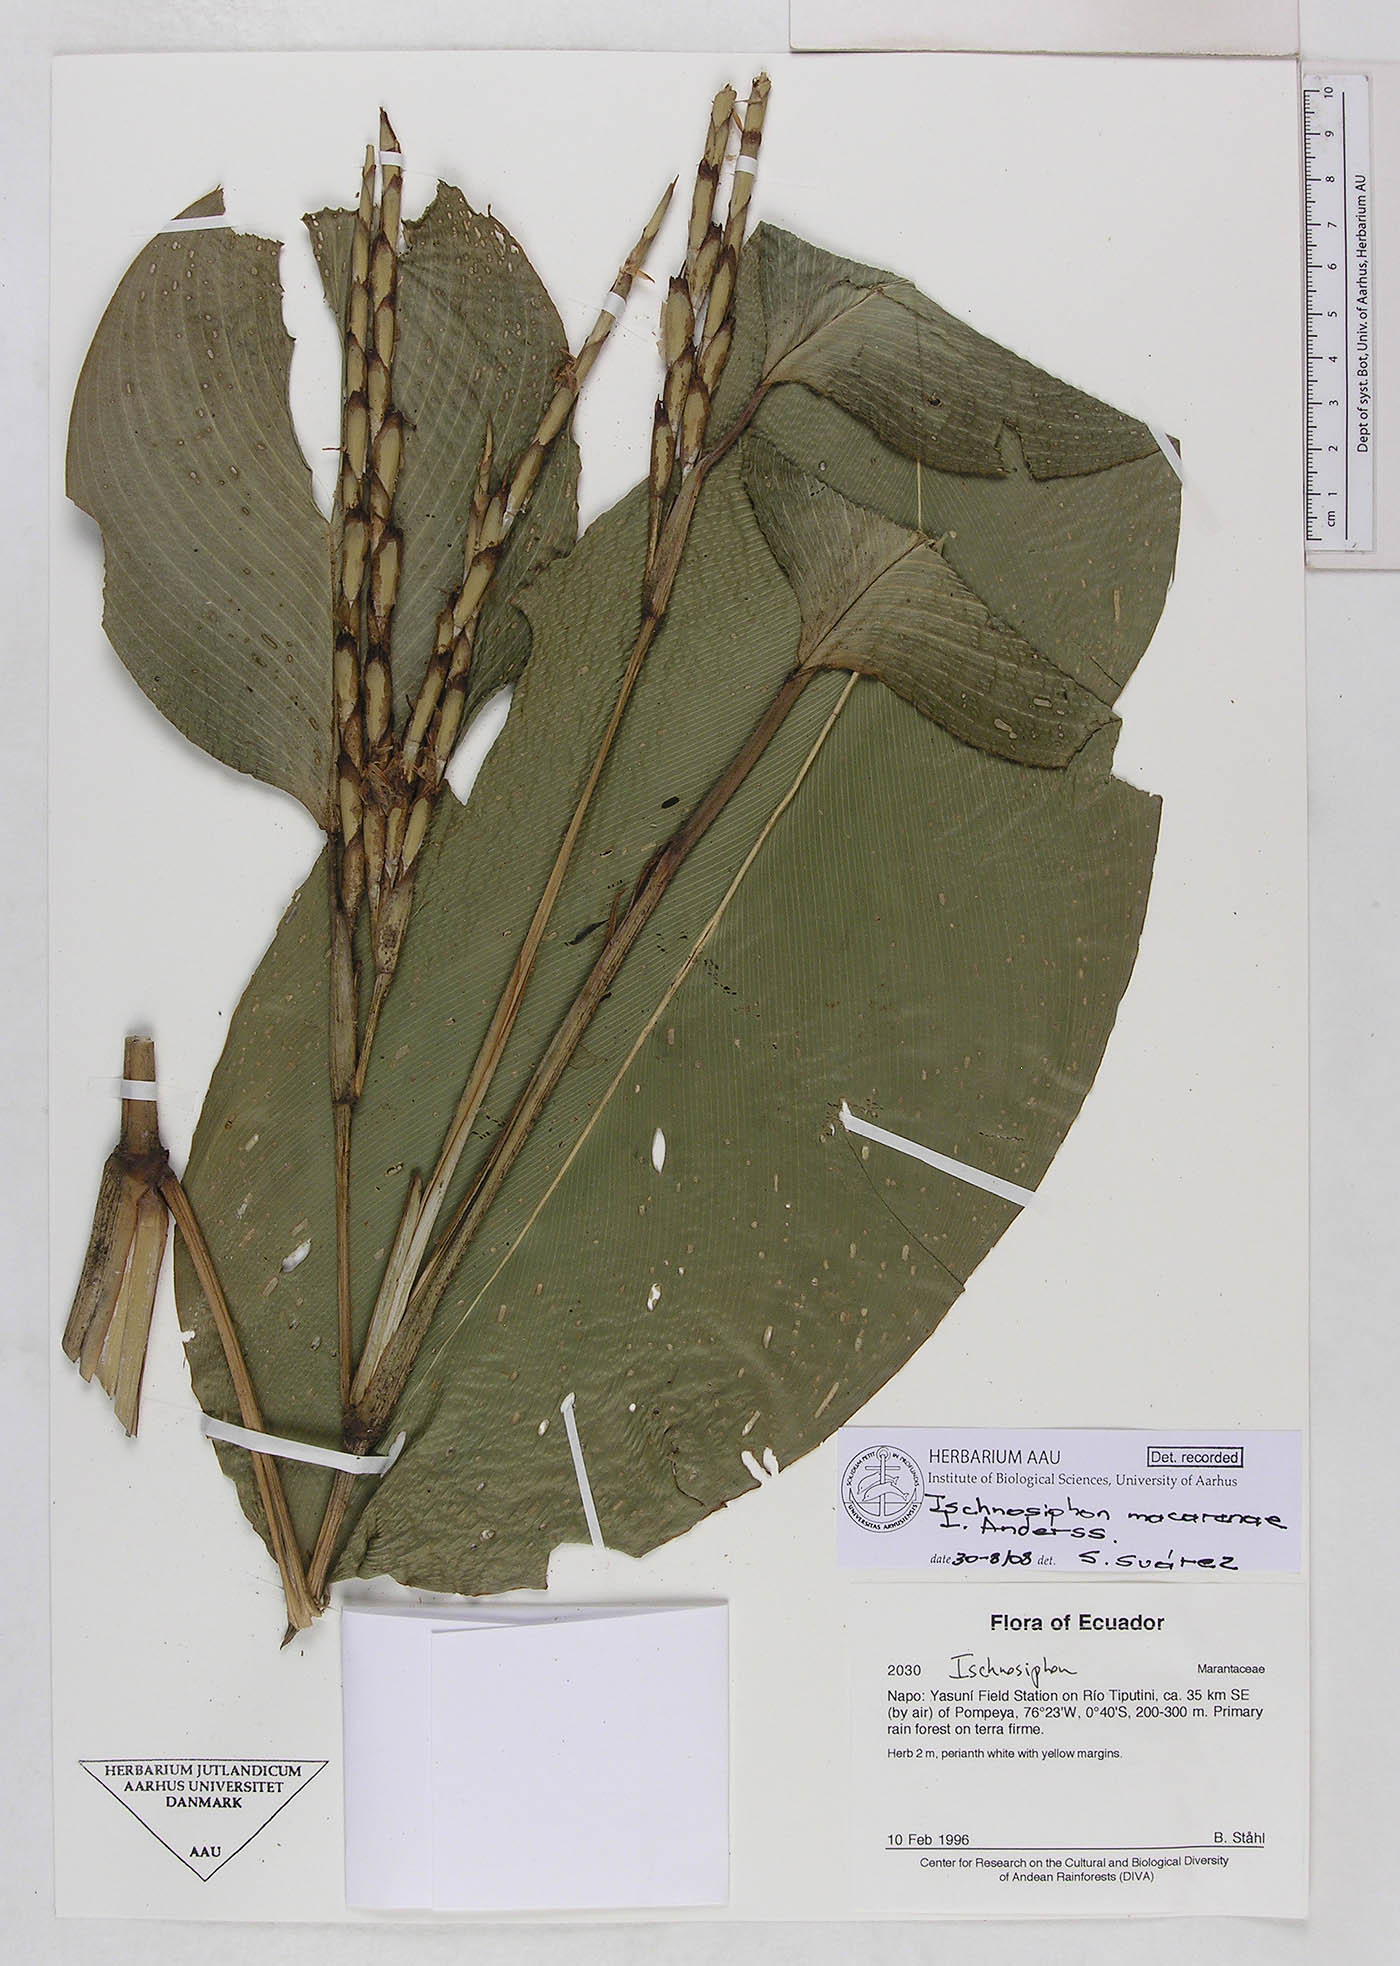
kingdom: Plantae
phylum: Tracheophyta
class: Liliopsida
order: Zingiberales
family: Marantaceae
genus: Ischnosiphon
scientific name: Ischnosiphon macarenae
